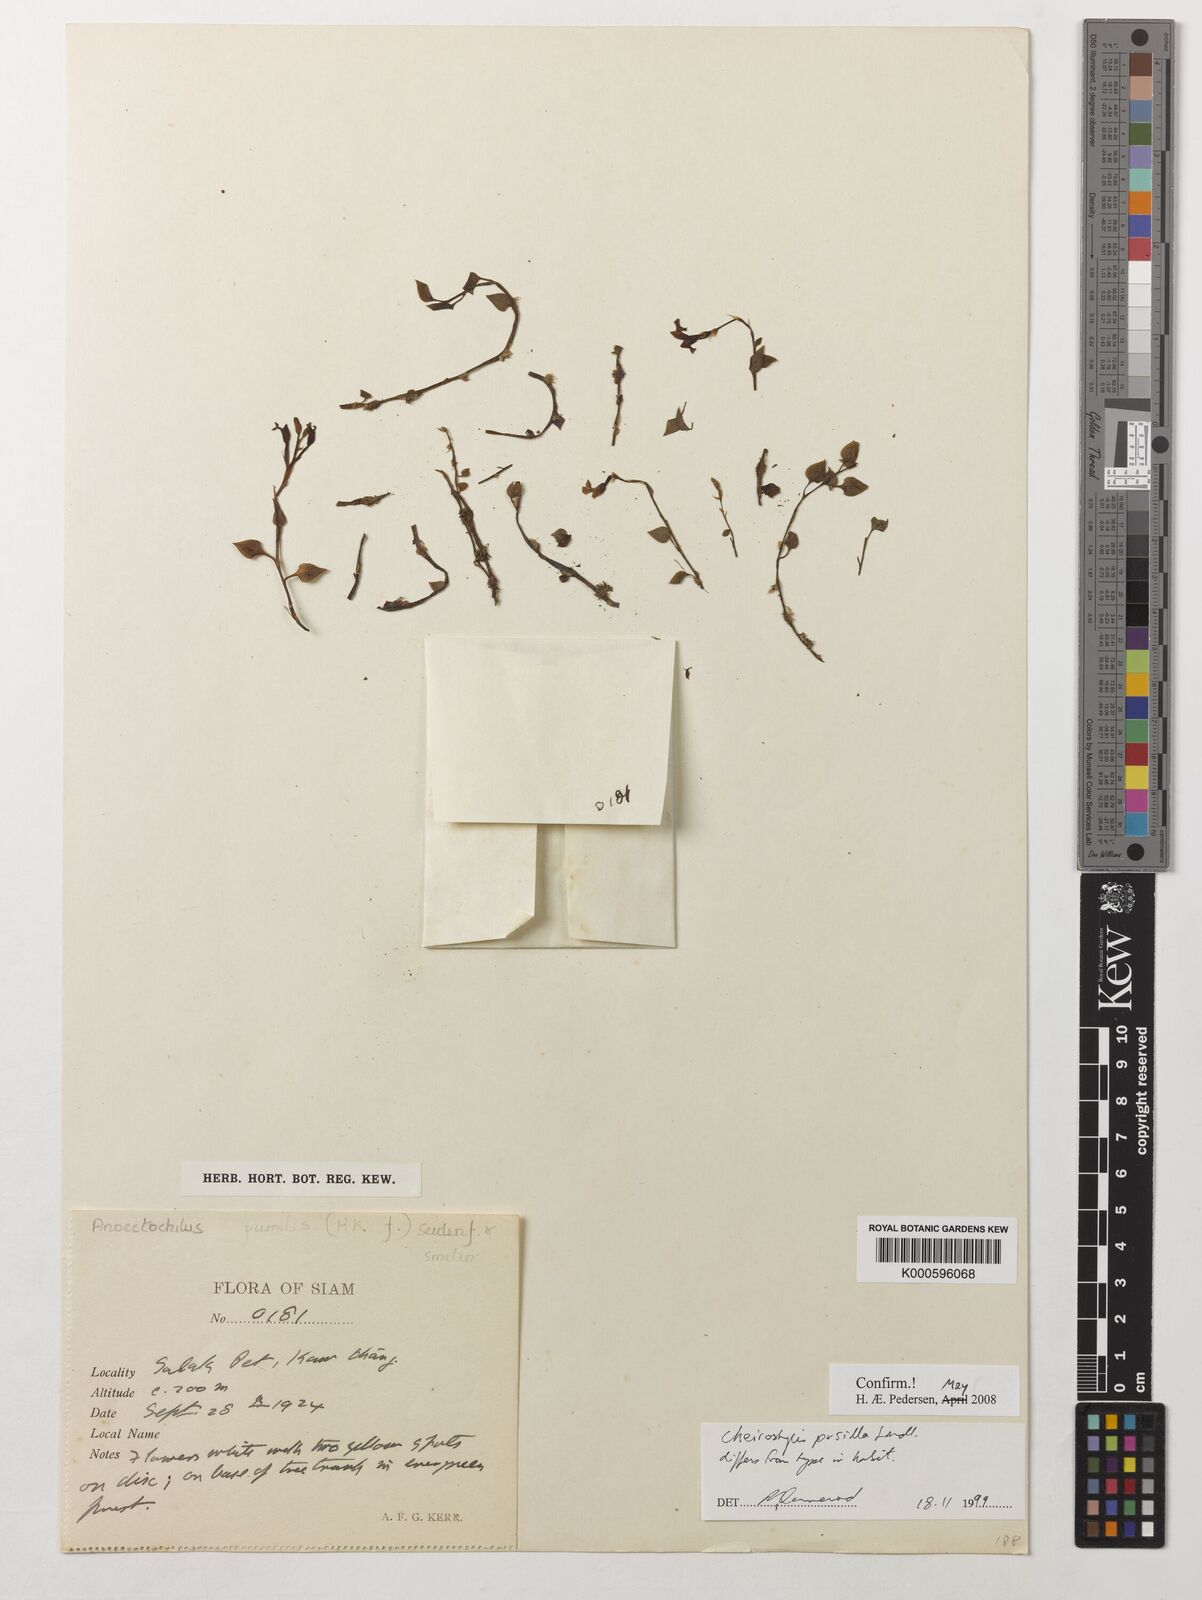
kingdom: Plantae
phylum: Tracheophyta
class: Liliopsida
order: Asparagales
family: Orchidaceae
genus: Cheirostylis
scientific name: Cheirostylis pusilla
